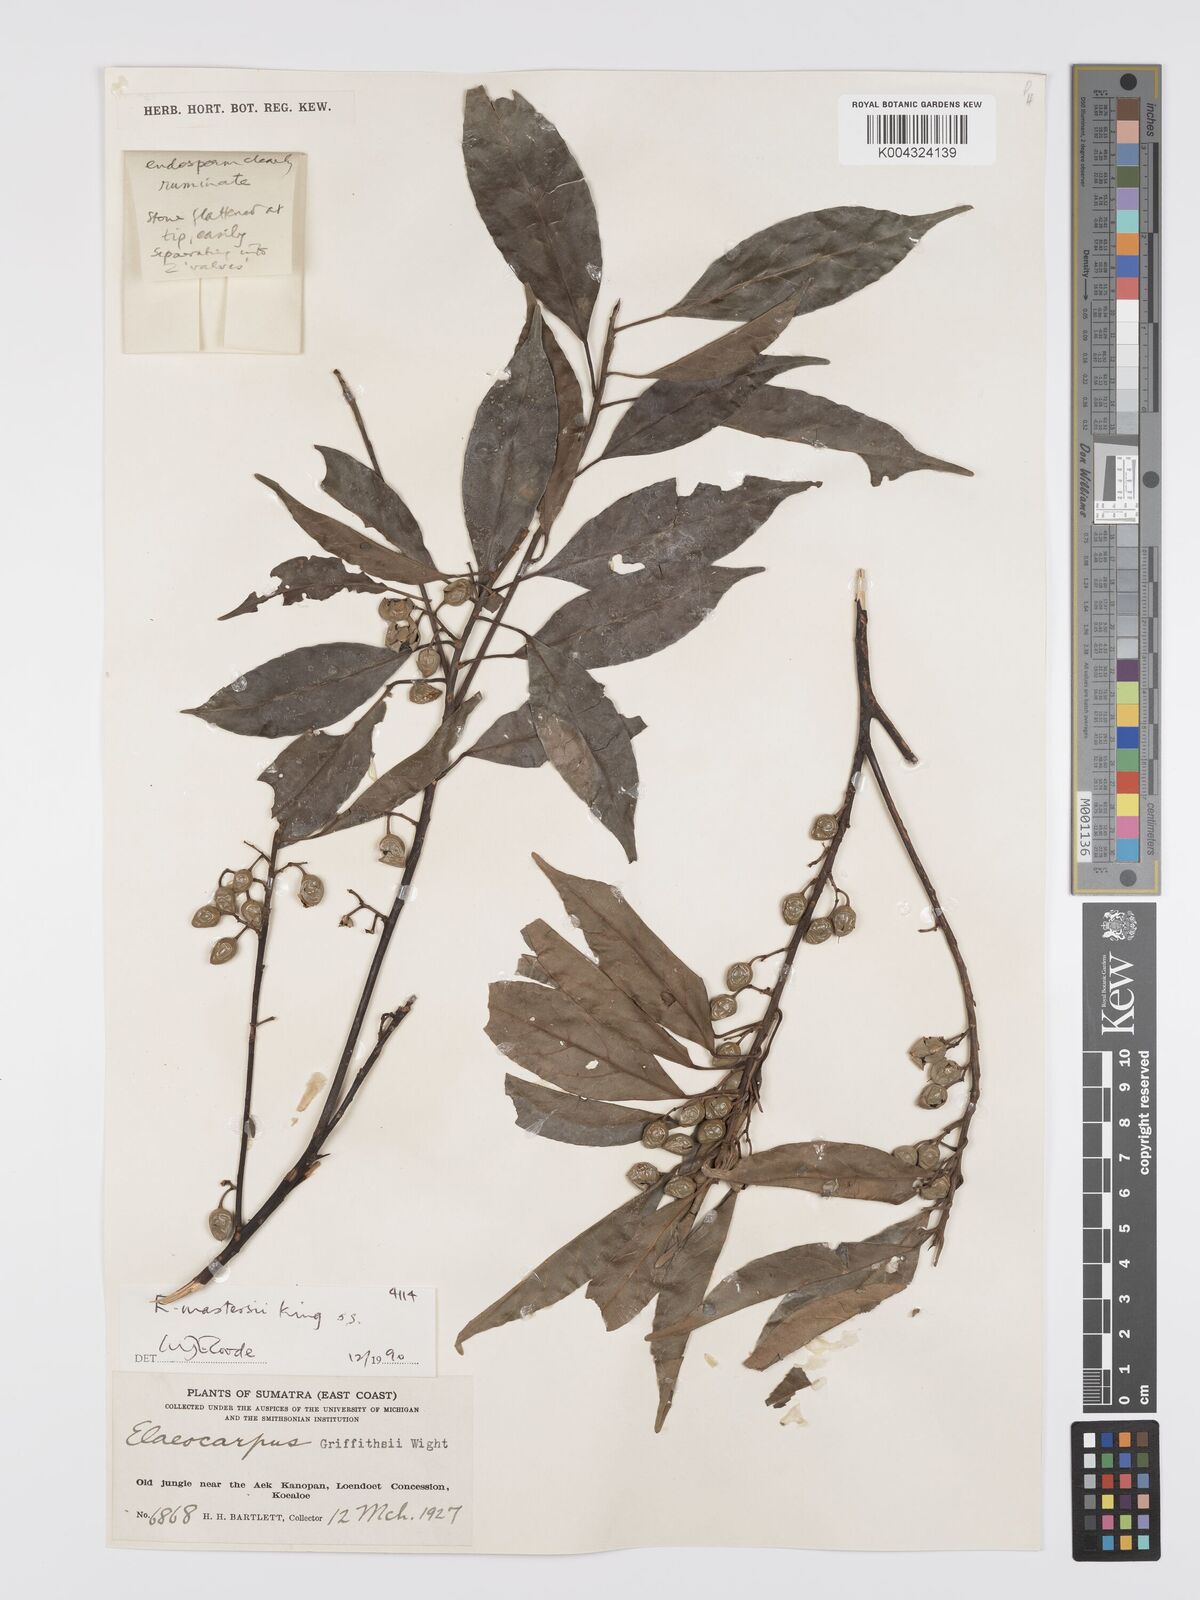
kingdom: Plantae
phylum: Tracheophyta
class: Magnoliopsida
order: Oxalidales
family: Elaeocarpaceae
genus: Elaeocarpus
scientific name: Elaeocarpus mastersii
